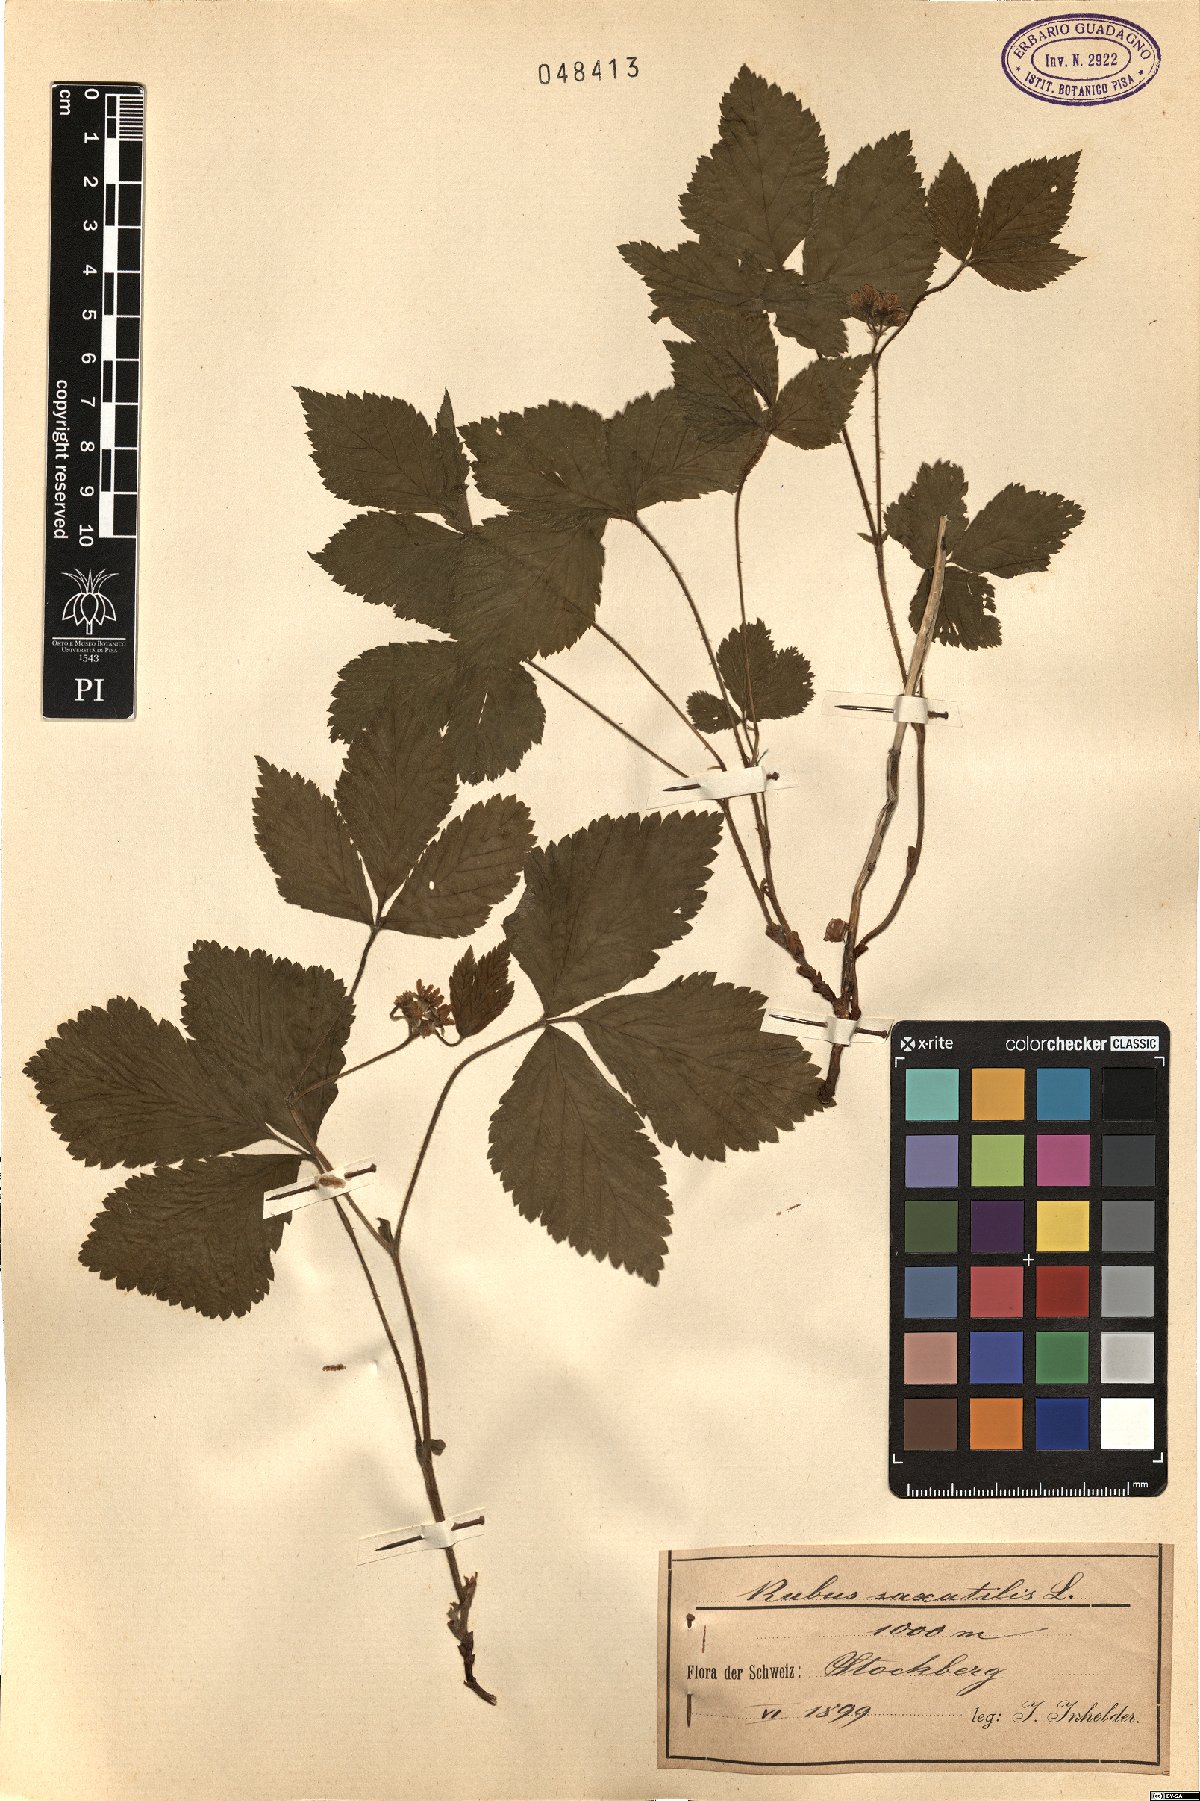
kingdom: Plantae
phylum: Tracheophyta
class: Magnoliopsida
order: Rosales
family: Rosaceae
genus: Rubus
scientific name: Rubus saxatilis
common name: Stone bramble
